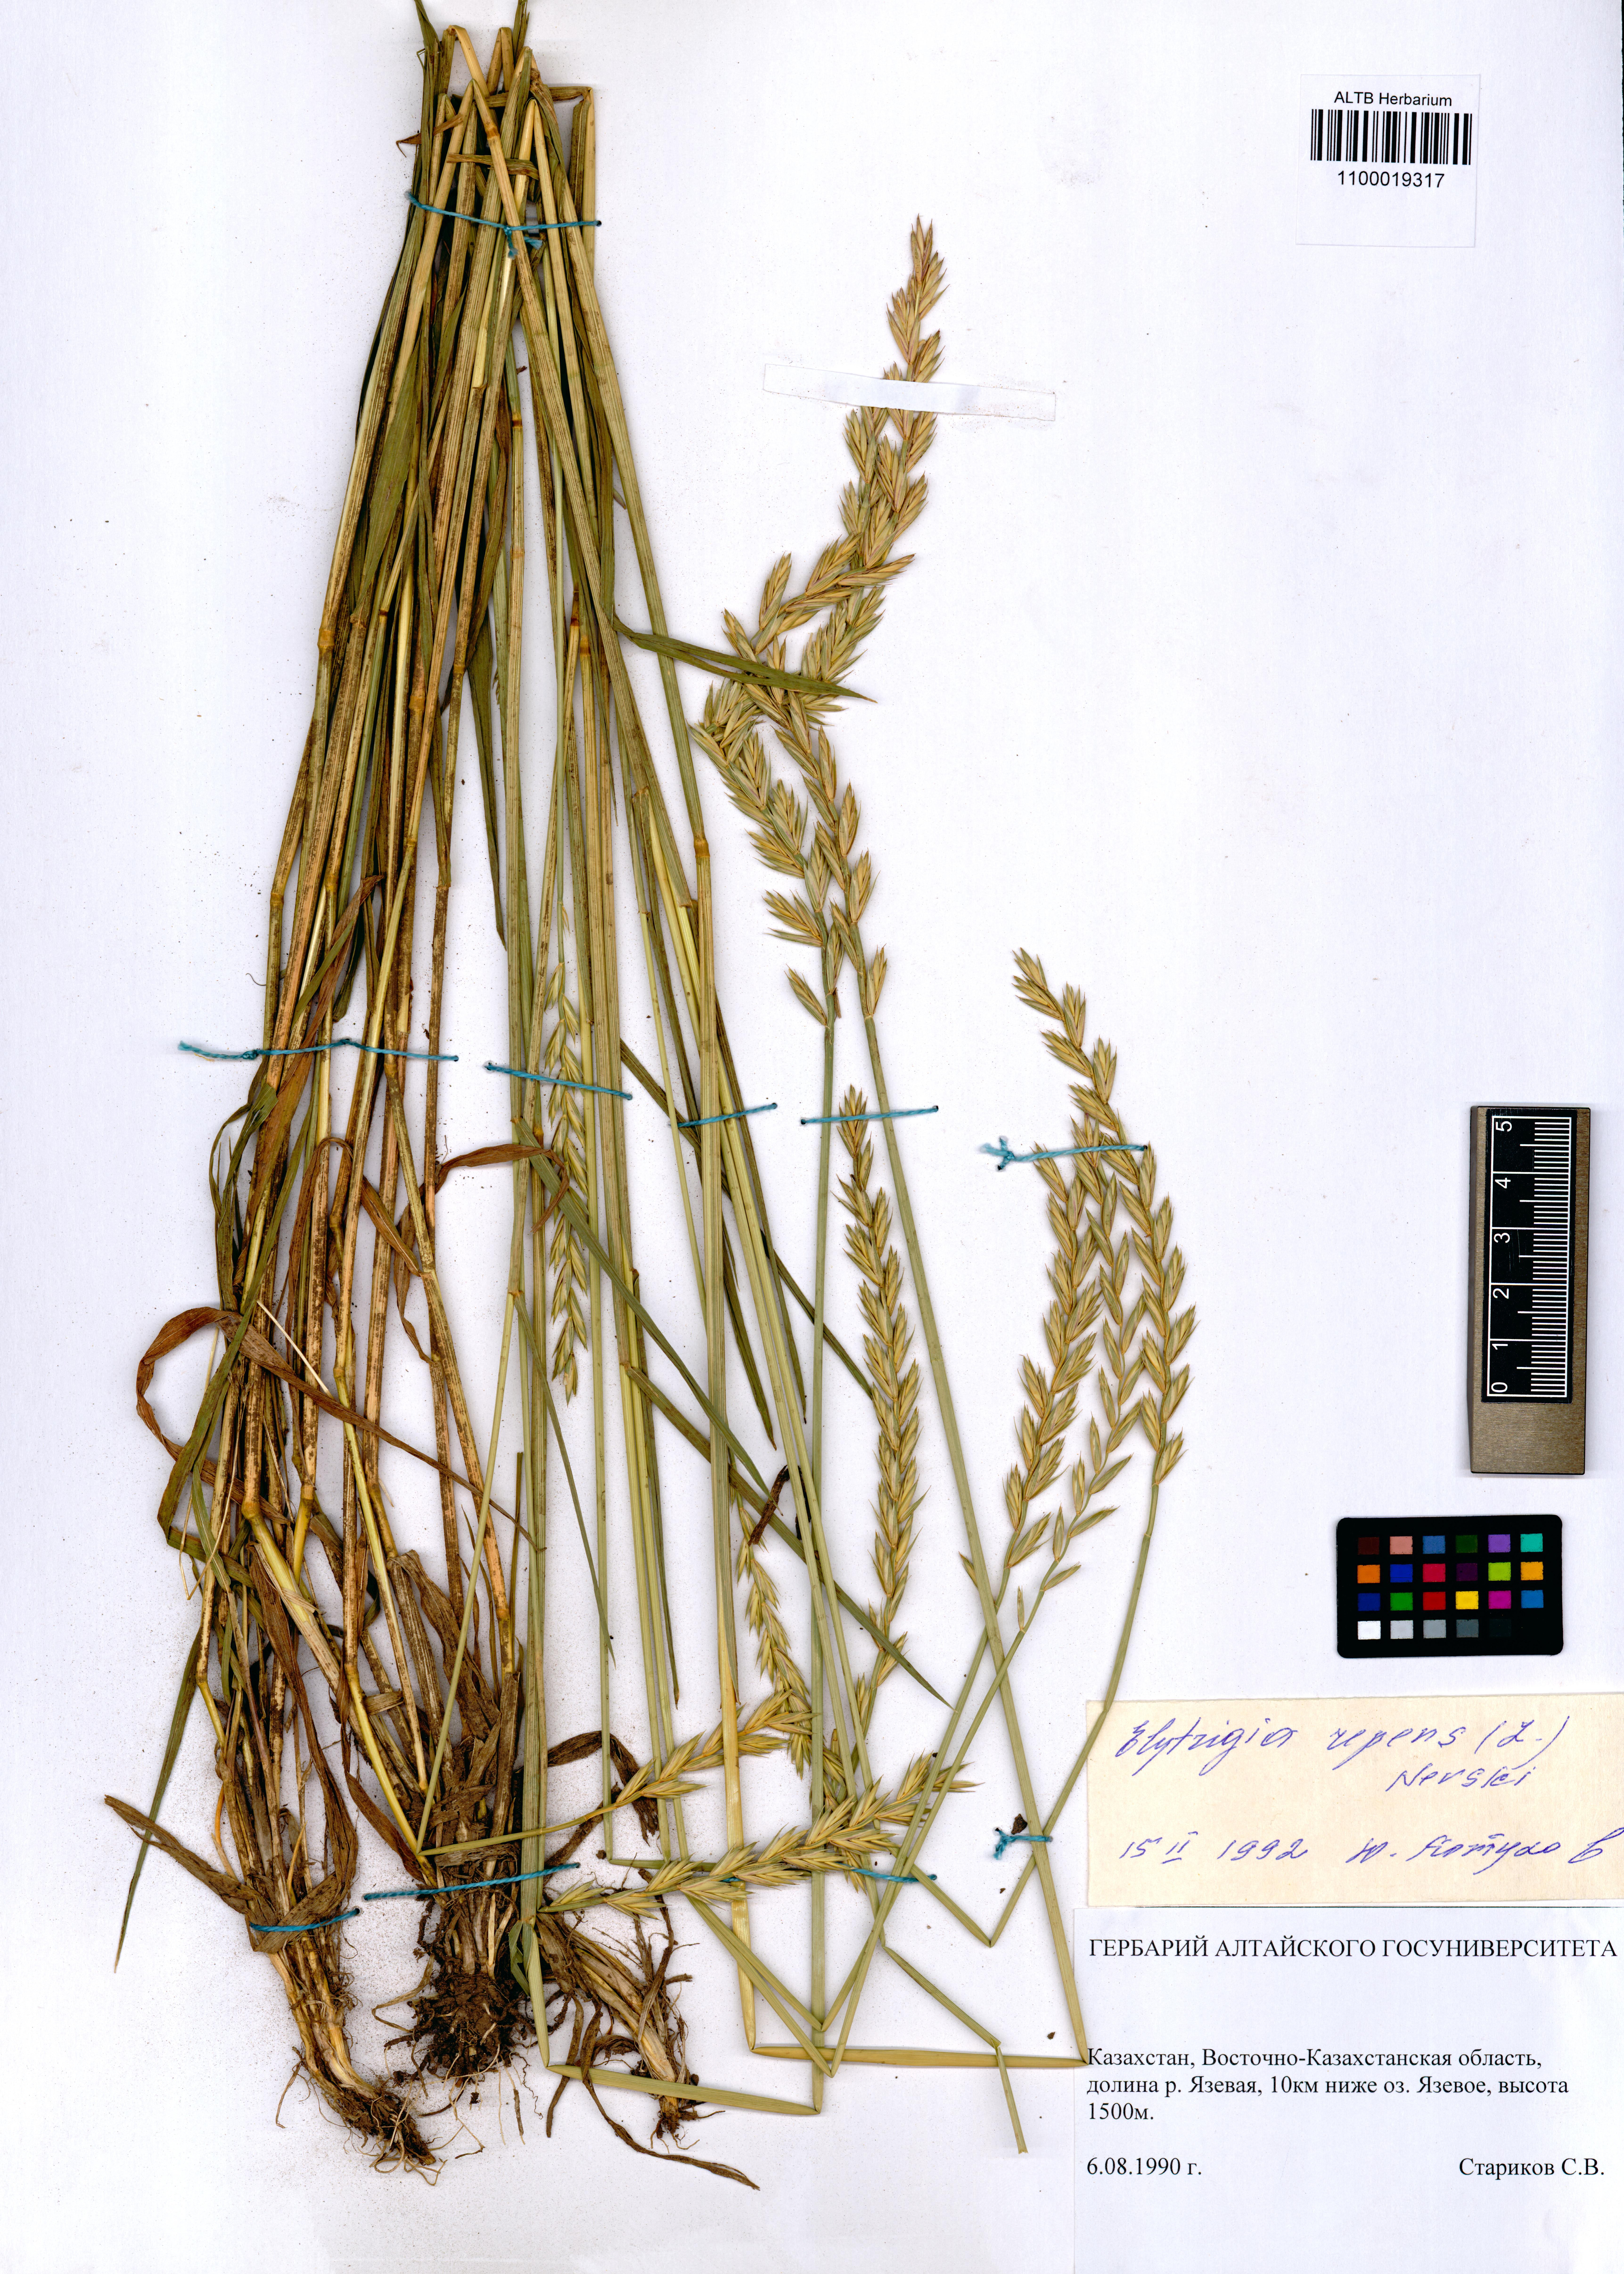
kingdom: Plantae
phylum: Tracheophyta
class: Liliopsida
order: Poales
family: Poaceae
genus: Elymus
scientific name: Elymus repens
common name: Quackgrass
